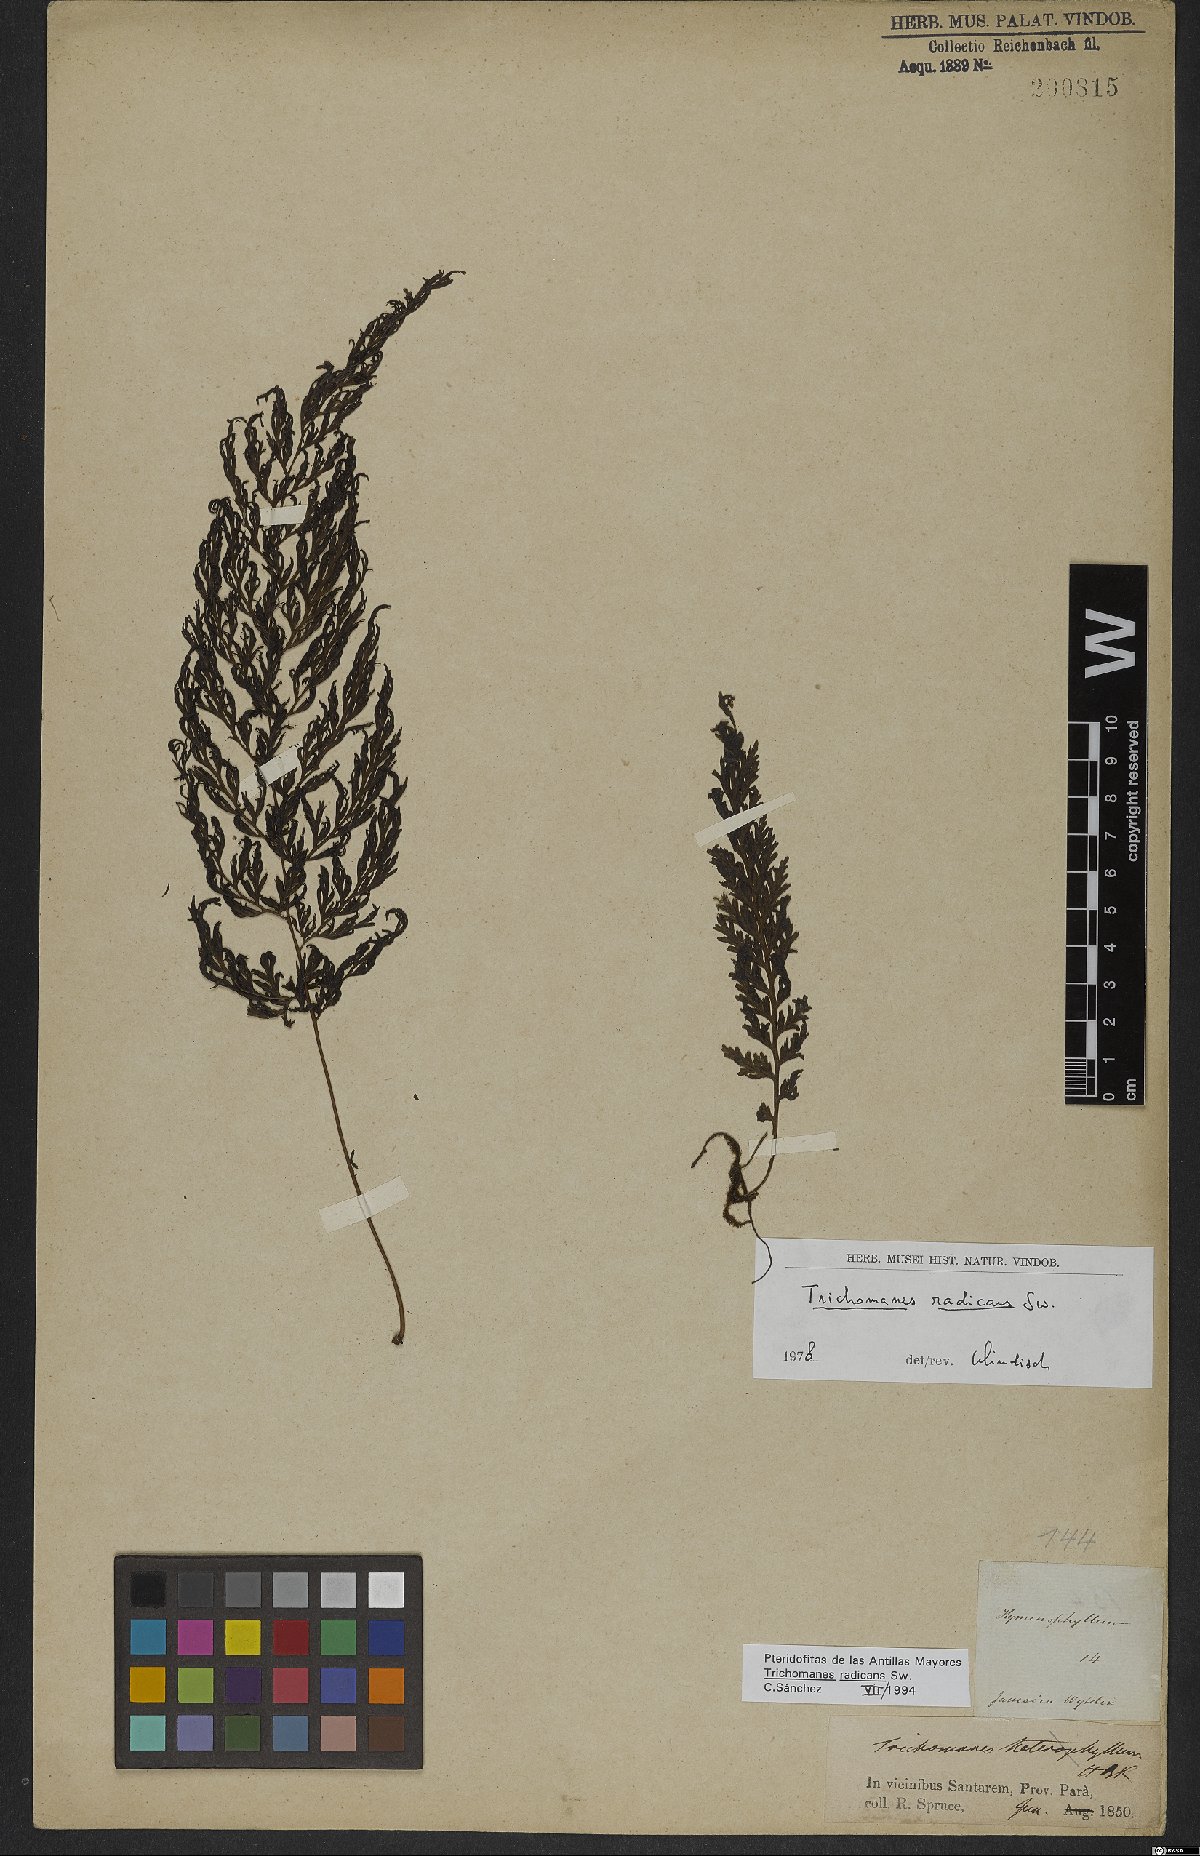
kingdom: Plantae
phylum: Tracheophyta
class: Polypodiopsida
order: Hymenophyllales
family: Hymenophyllaceae
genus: Vandenboschia
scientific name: Vandenboschia radicans
